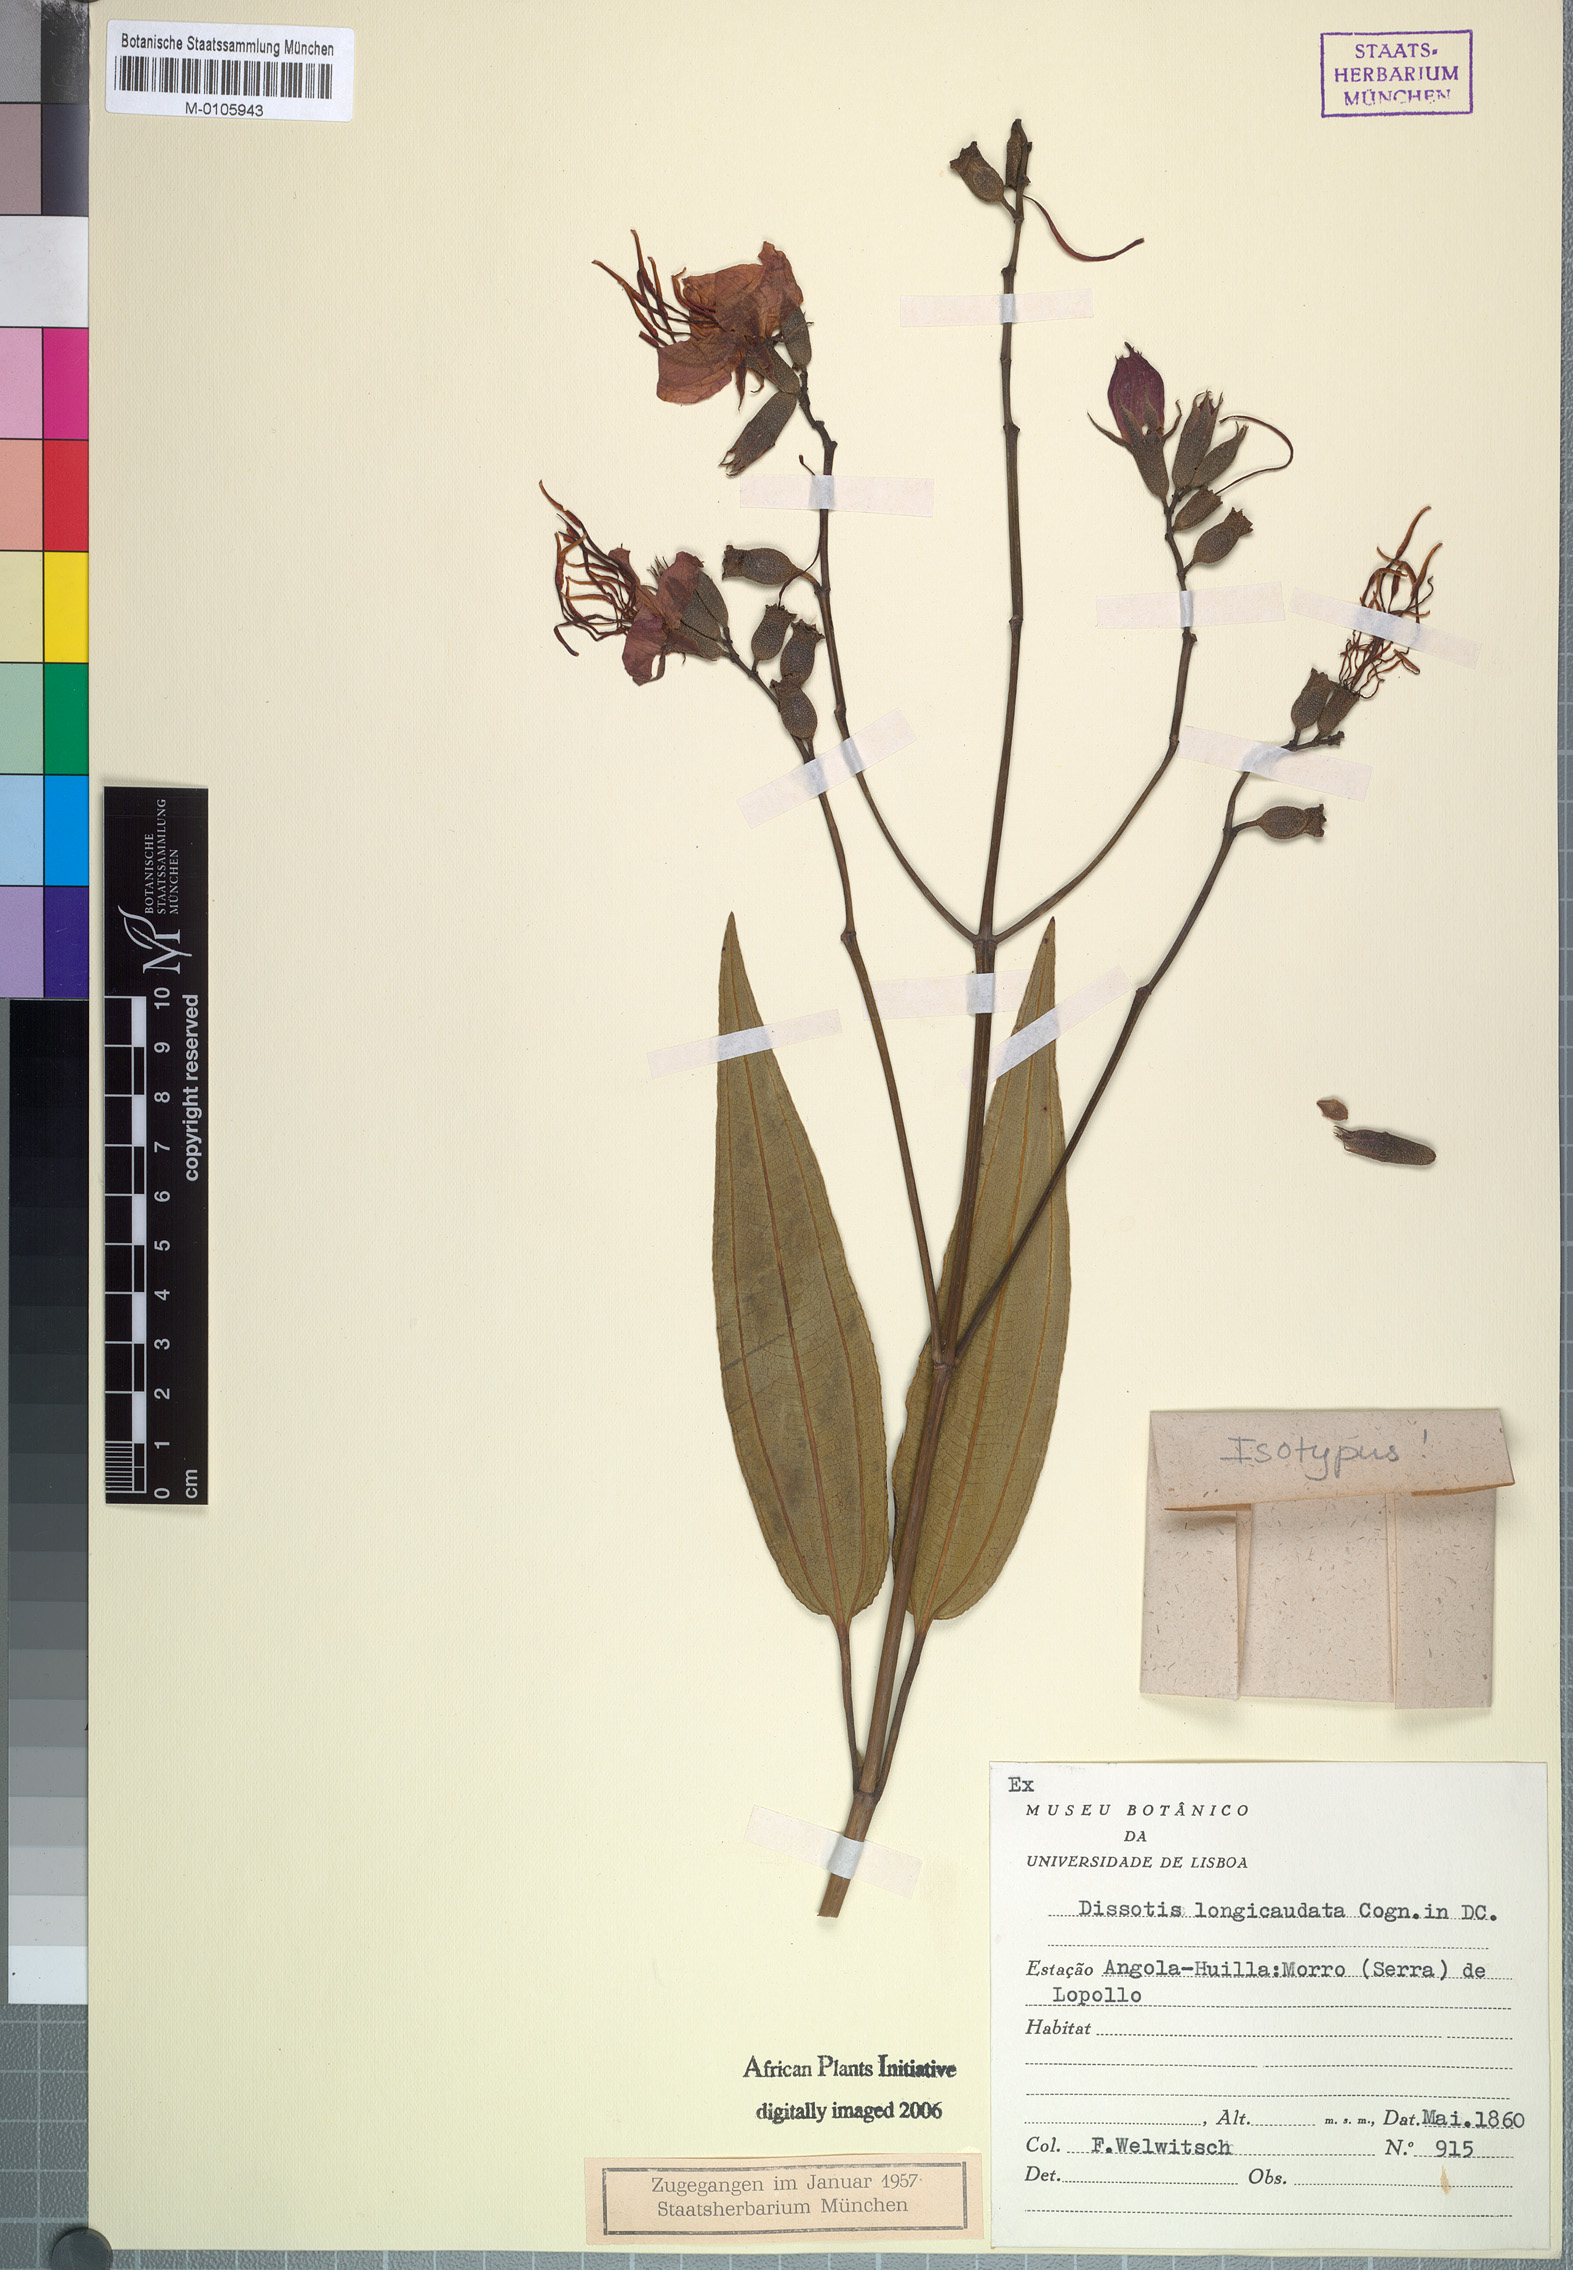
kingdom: Plantae
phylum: Tracheophyta
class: Magnoliopsida
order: Myrtales
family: Melastomataceae
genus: Rosettea
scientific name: Rosettea longicaudata
